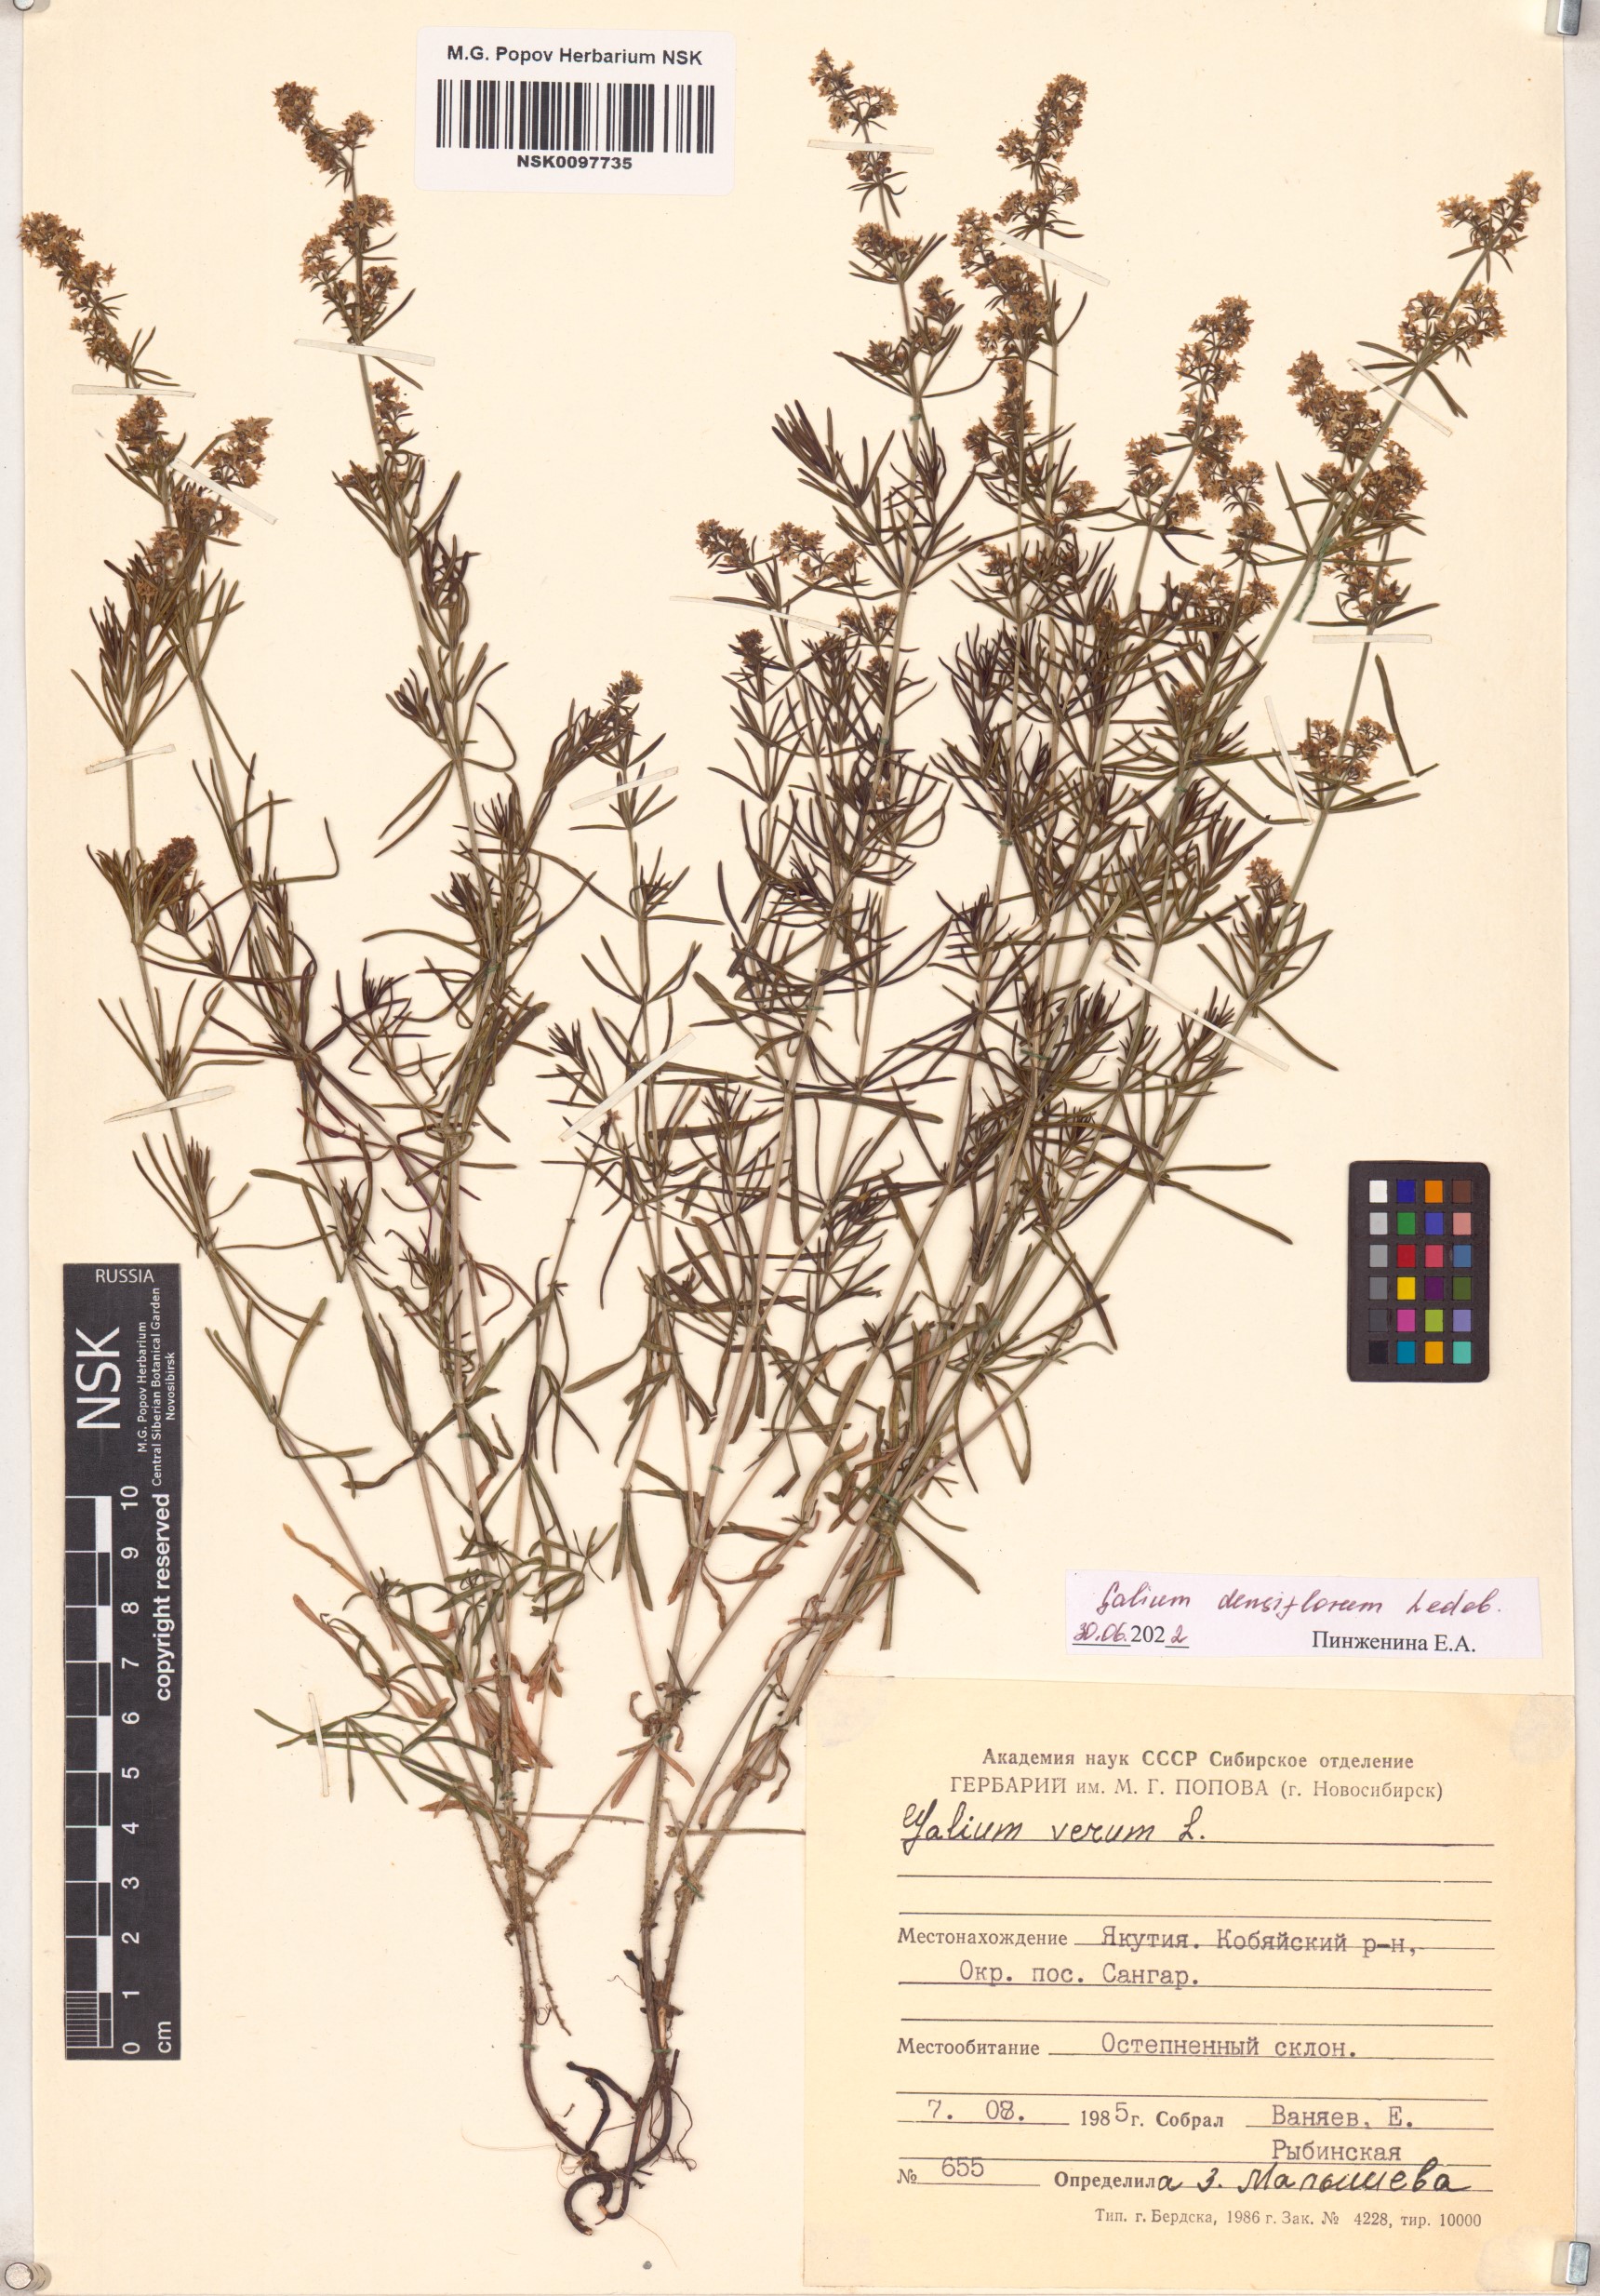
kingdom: Plantae
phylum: Tracheophyta
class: Magnoliopsida
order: Gentianales
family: Rubiaceae
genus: Galium
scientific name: Galium densiflorum
